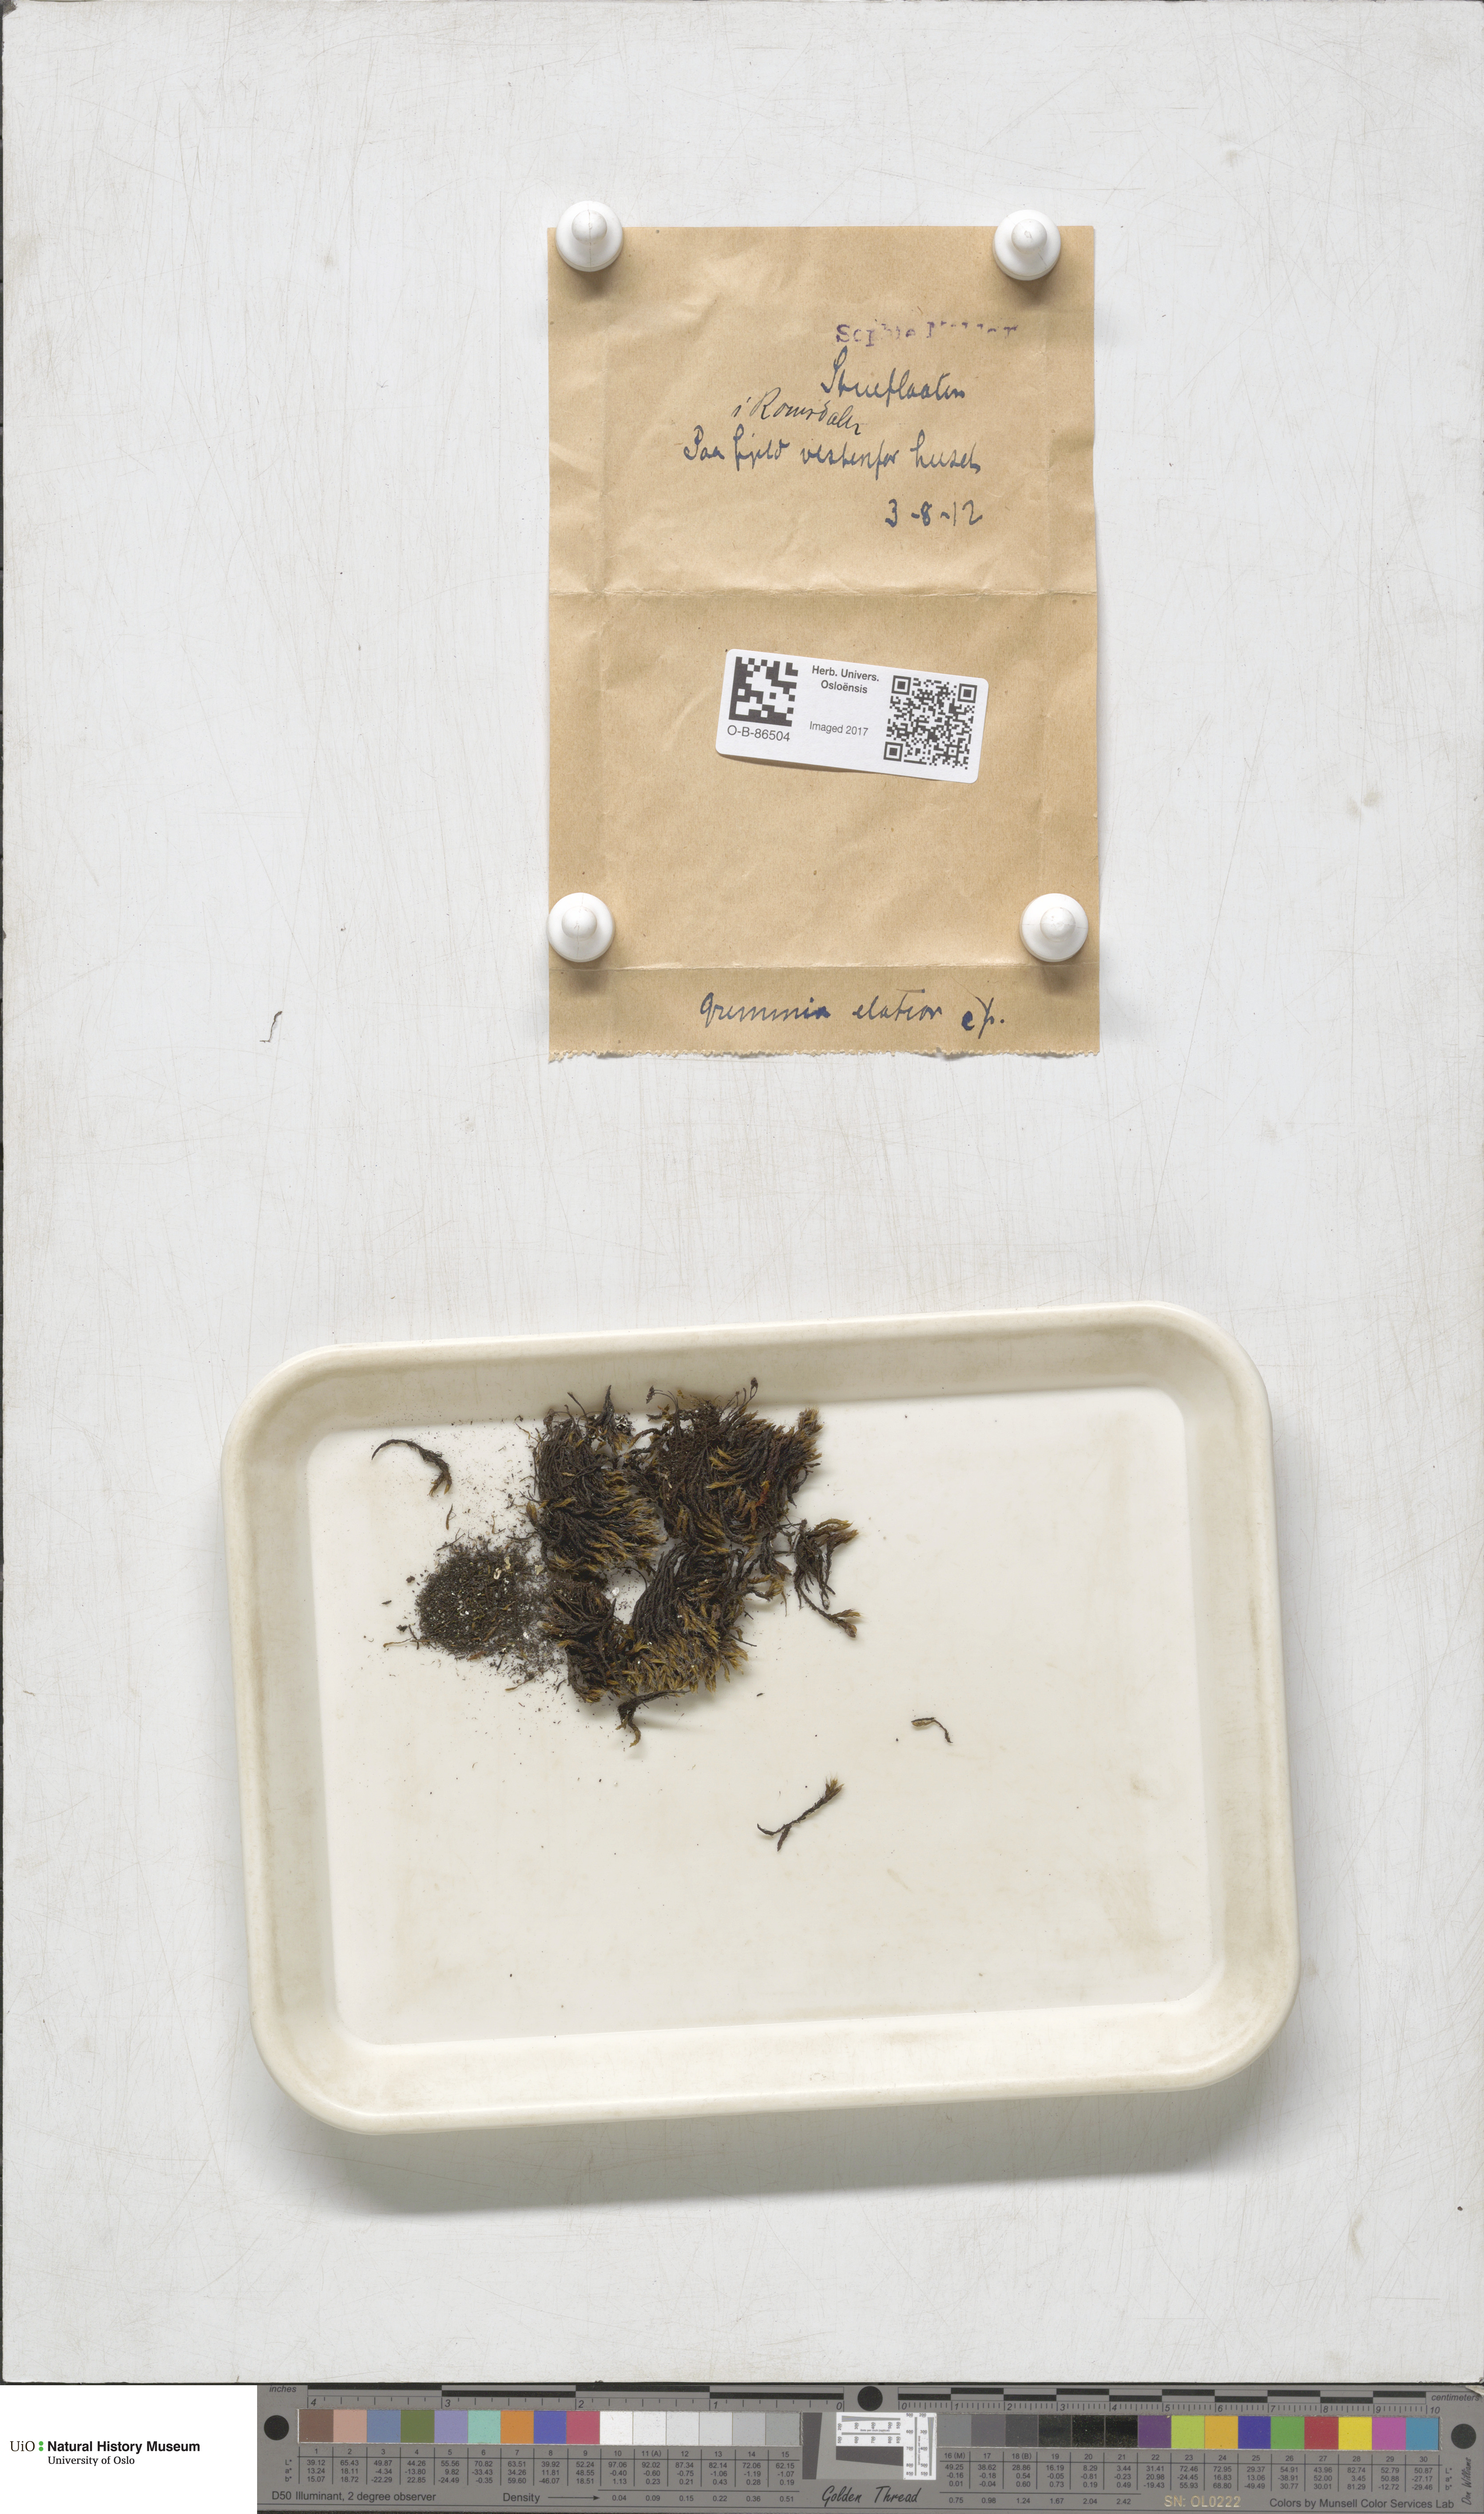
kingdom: Plantae
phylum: Bryophyta
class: Bryopsida
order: Grimmiales
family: Grimmiaceae
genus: Grimmia
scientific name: Grimmia elatior
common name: Large grimmia
